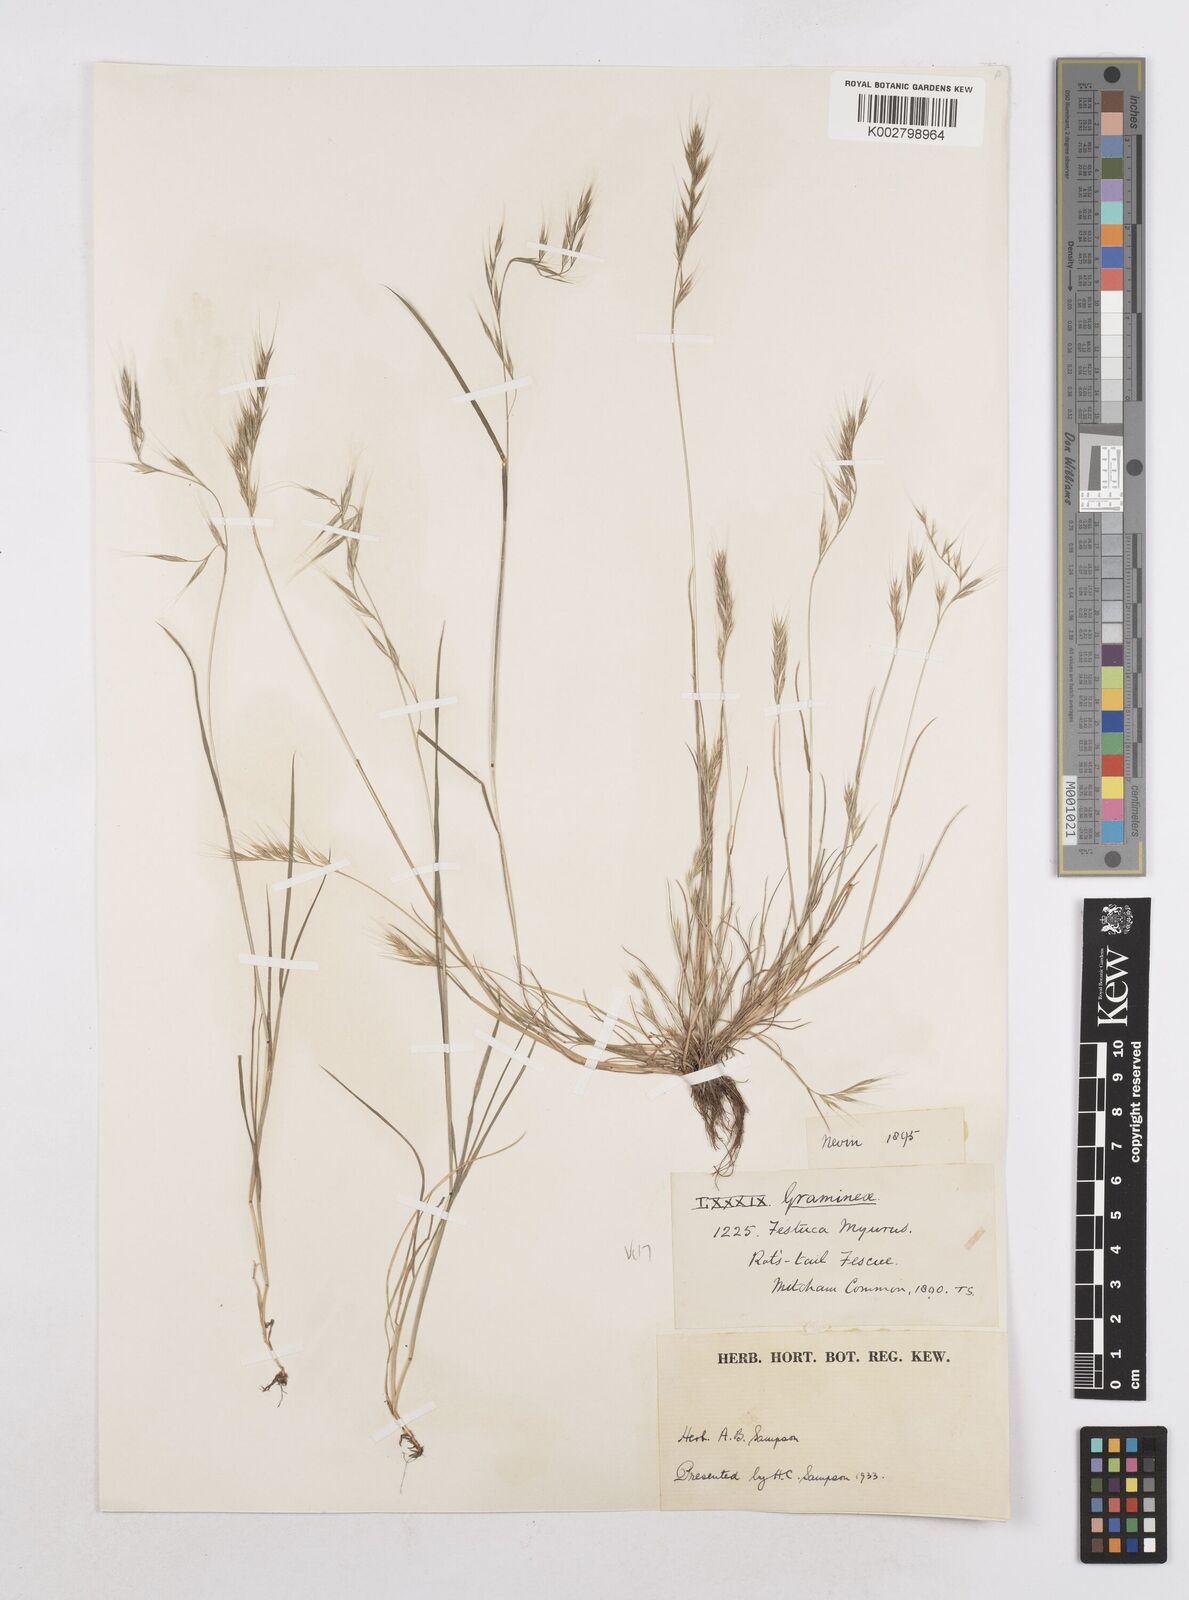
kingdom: Plantae
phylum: Tracheophyta
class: Liliopsida
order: Poales
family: Poaceae
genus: Festuca
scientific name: Festuca bromoides
